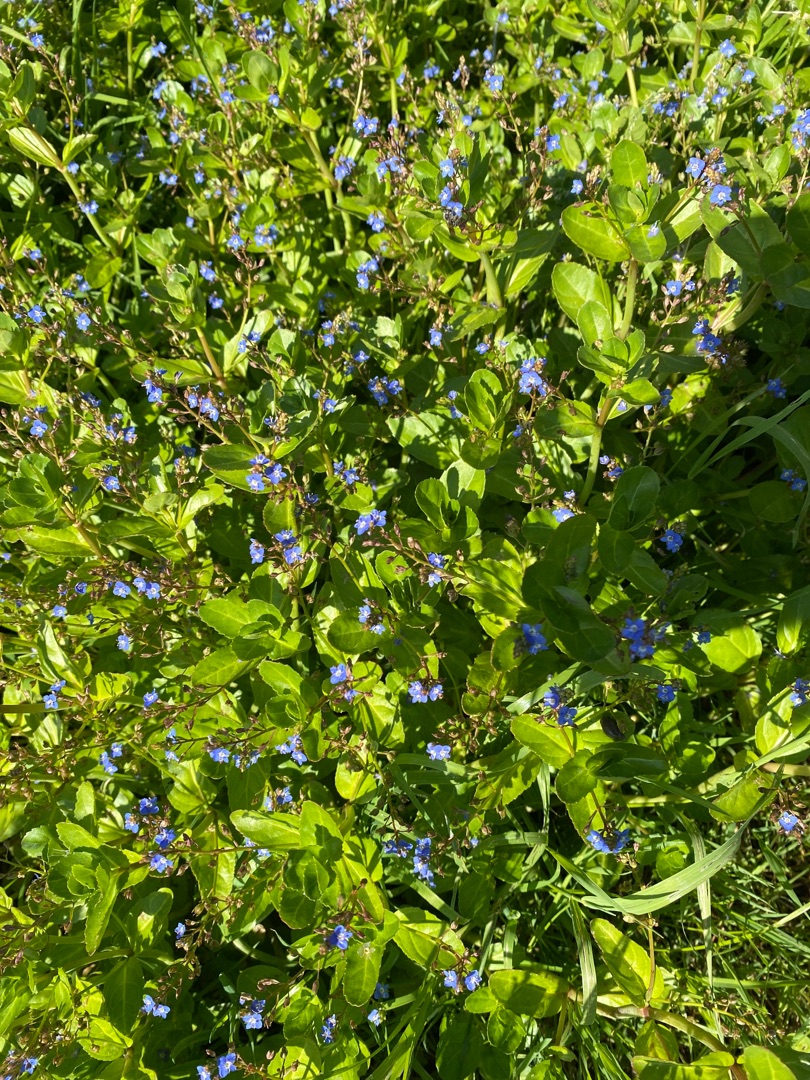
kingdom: Plantae
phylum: Tracheophyta
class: Magnoliopsida
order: Lamiales
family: Plantaginaceae
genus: Veronica
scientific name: Veronica beccabunga
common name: Tykbladet ærenpris
